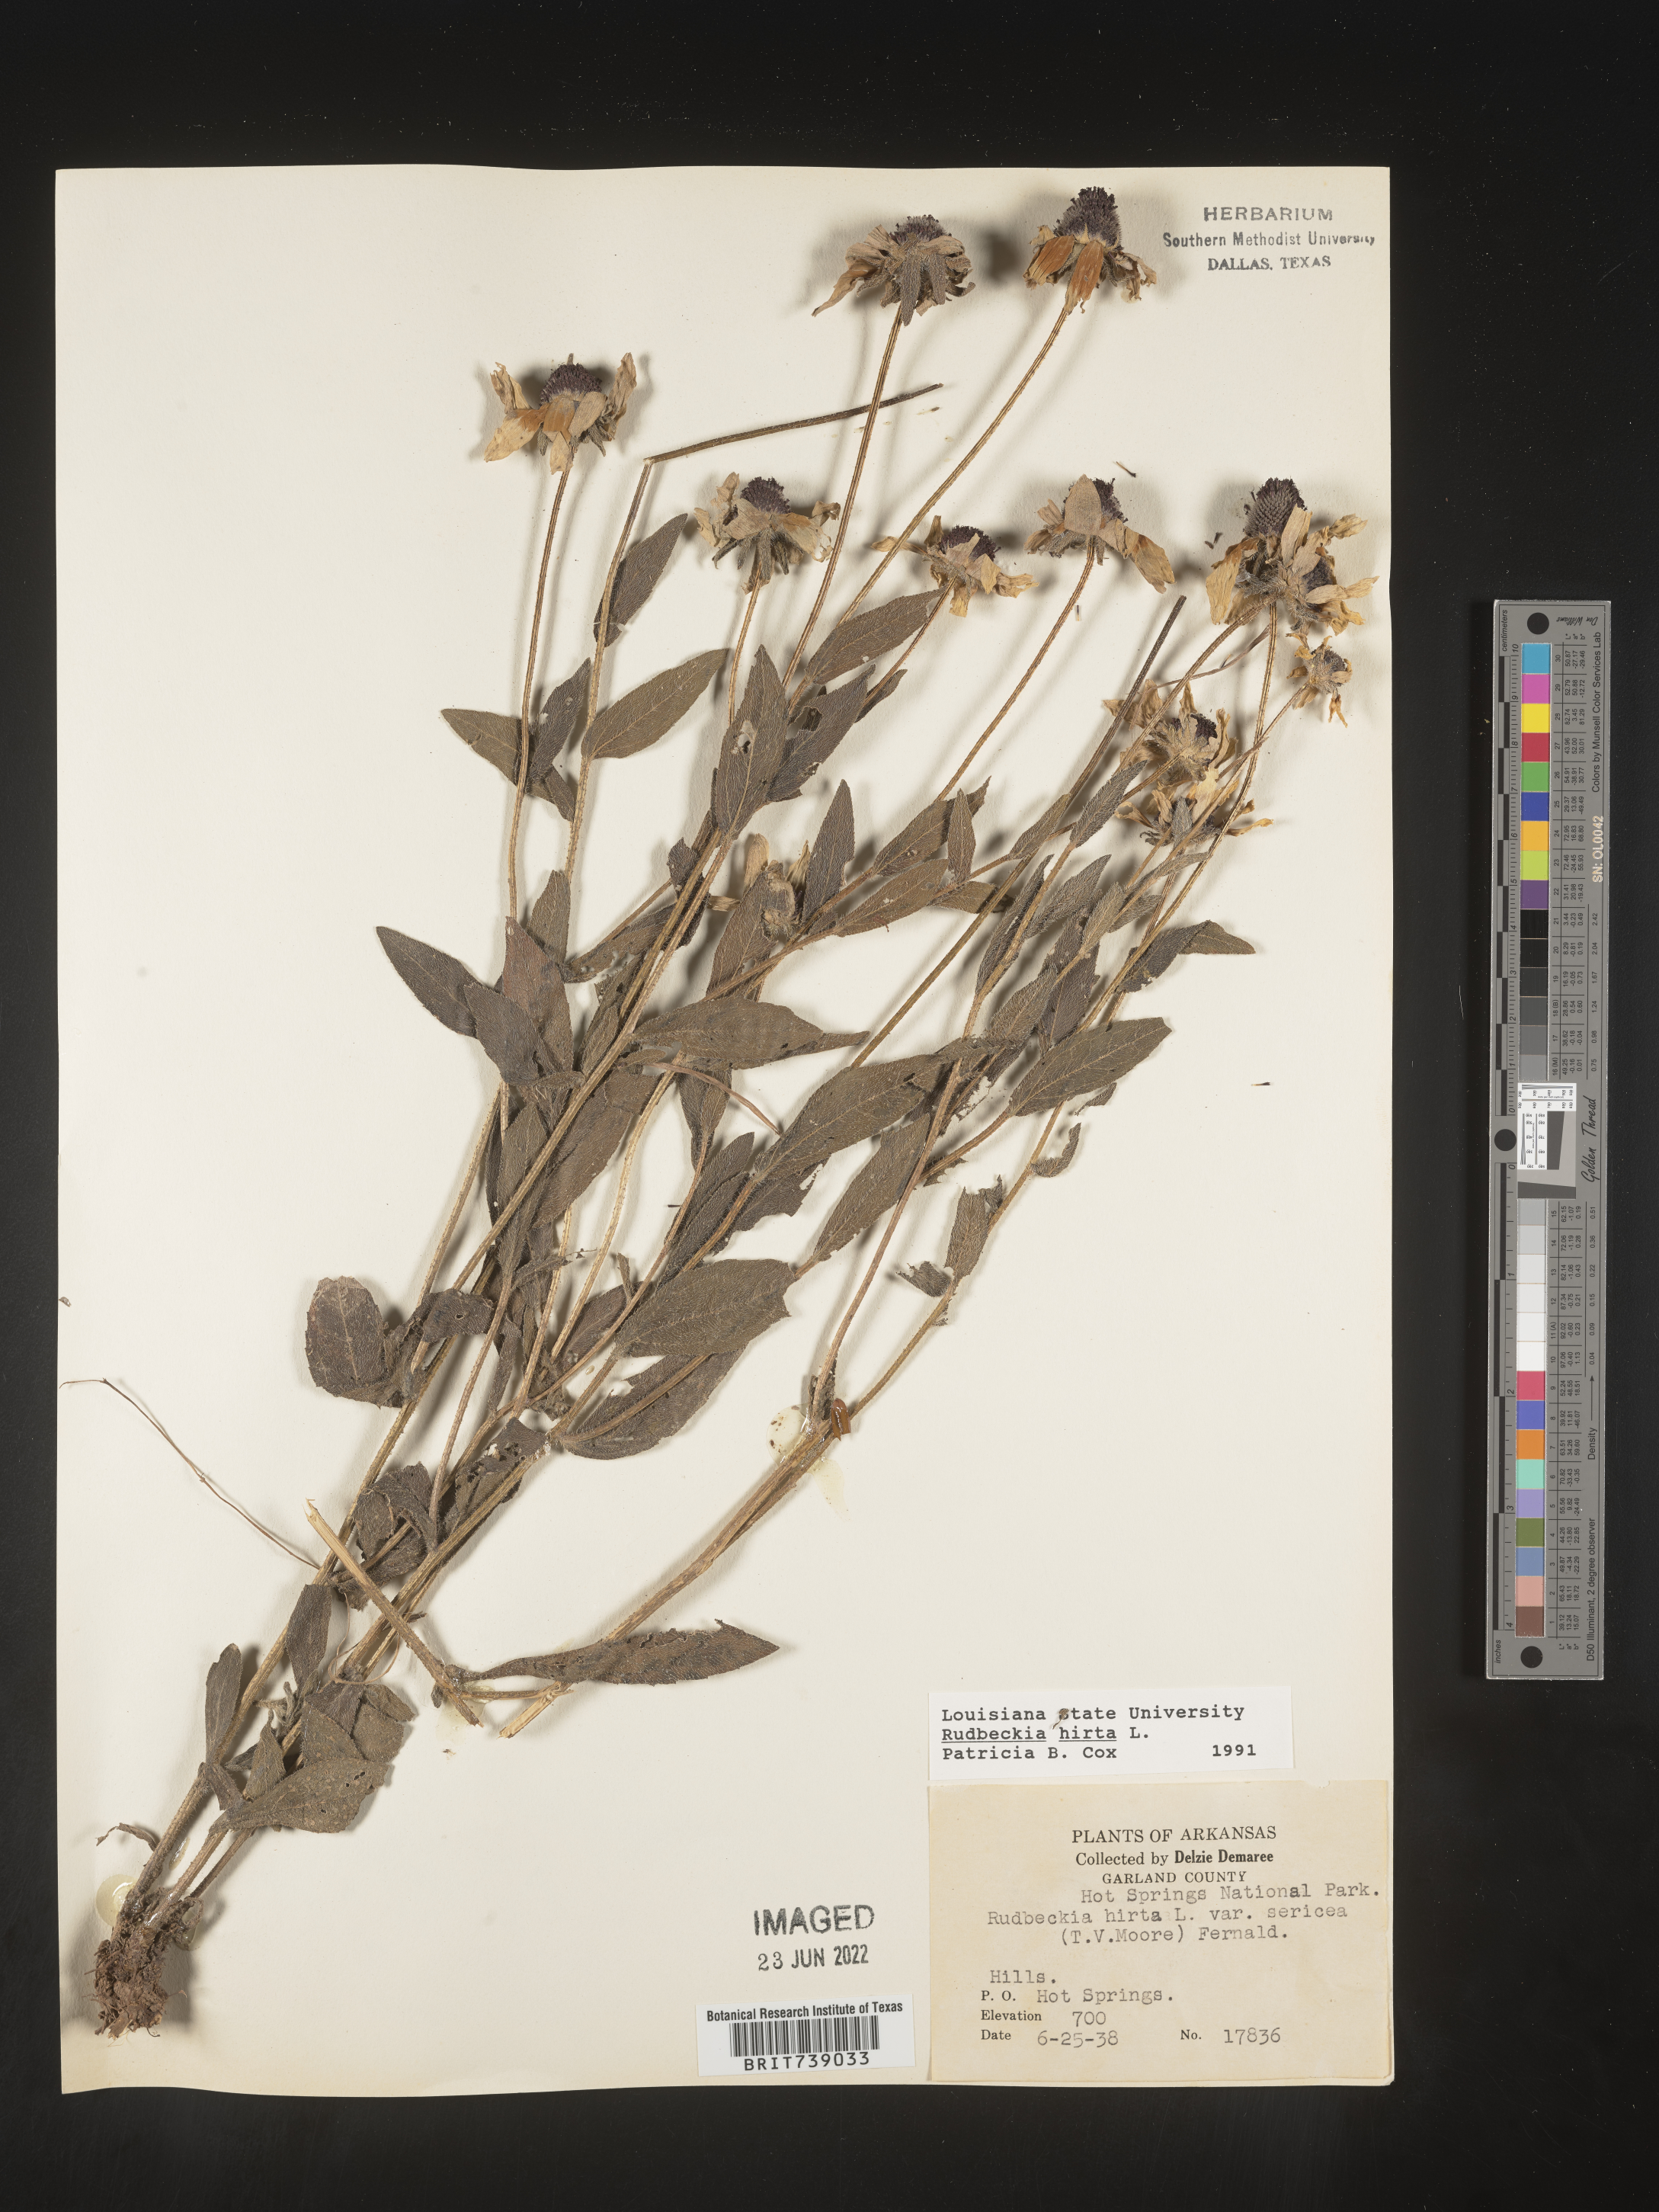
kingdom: Plantae
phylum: Tracheophyta
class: Magnoliopsida
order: Asterales
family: Asteraceae
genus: Rudbeckia
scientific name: Rudbeckia hirta
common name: Black-eyed-susan
